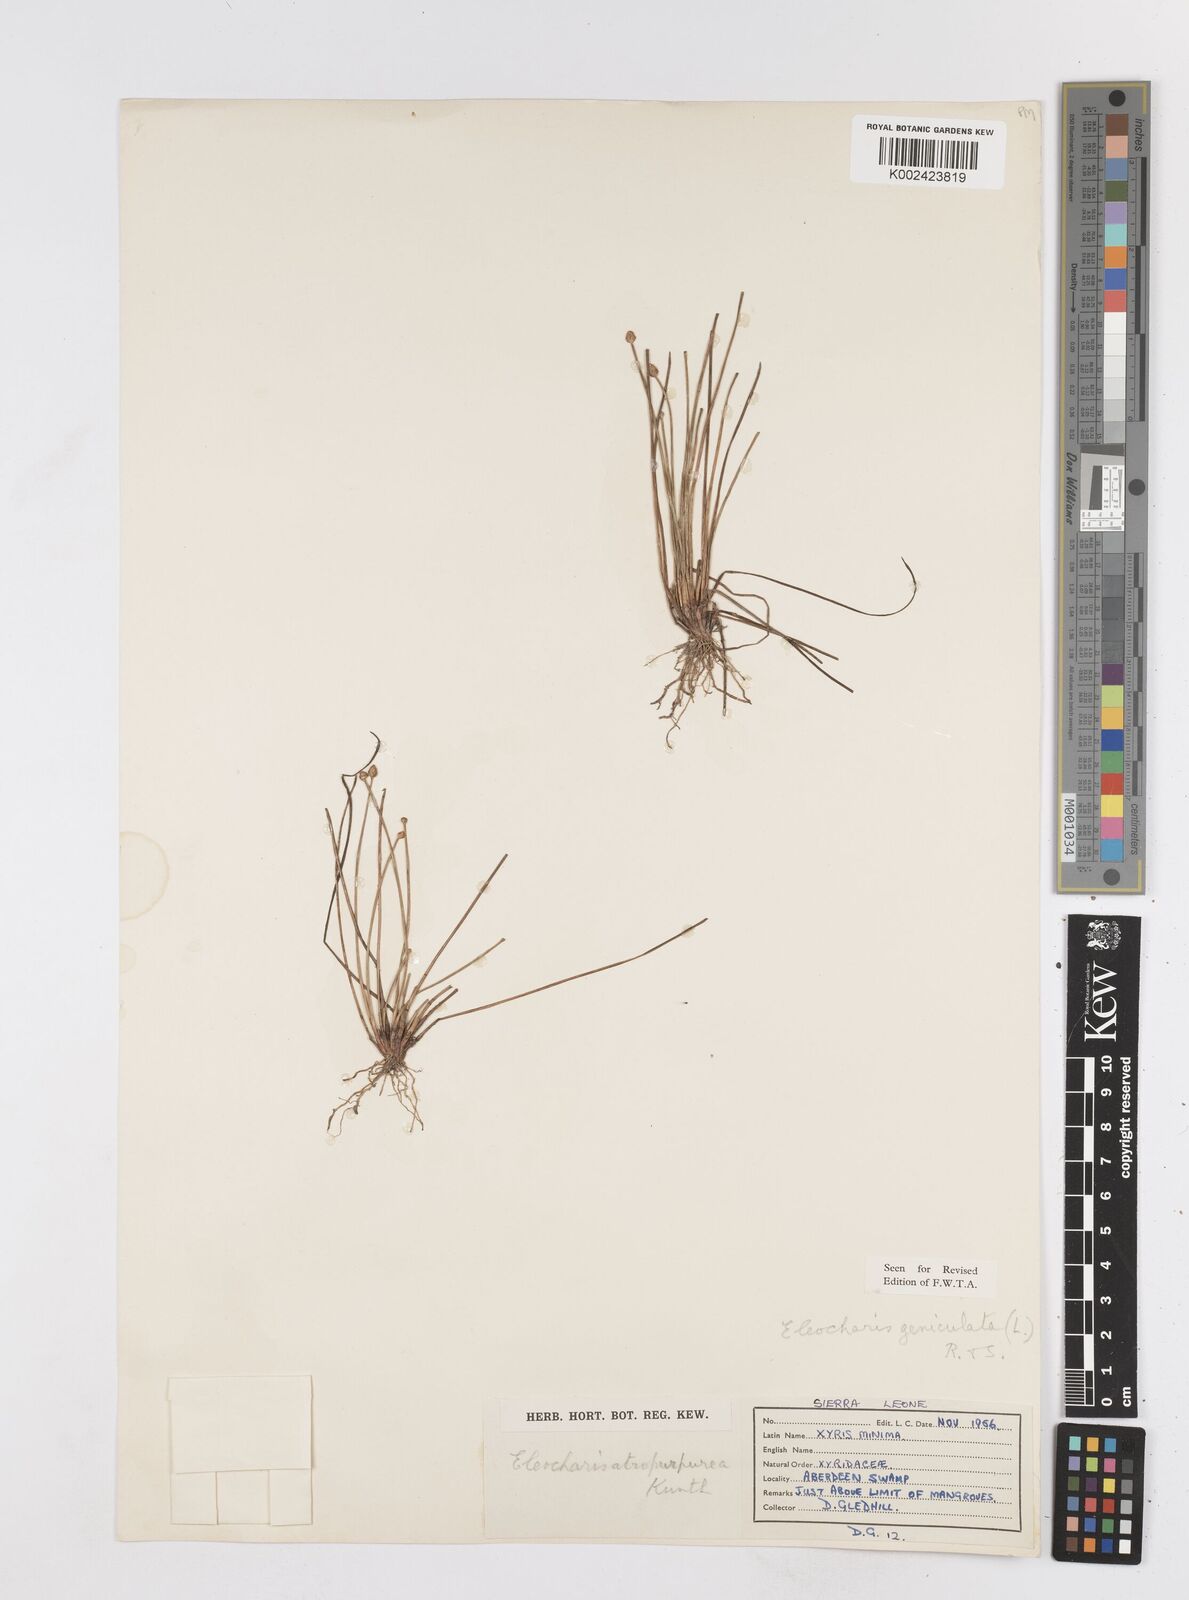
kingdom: Plantae
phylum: Tracheophyta
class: Liliopsida
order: Poales
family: Cyperaceae
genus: Eleocharis
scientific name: Eleocharis geniculata
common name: Canada spikesedge
